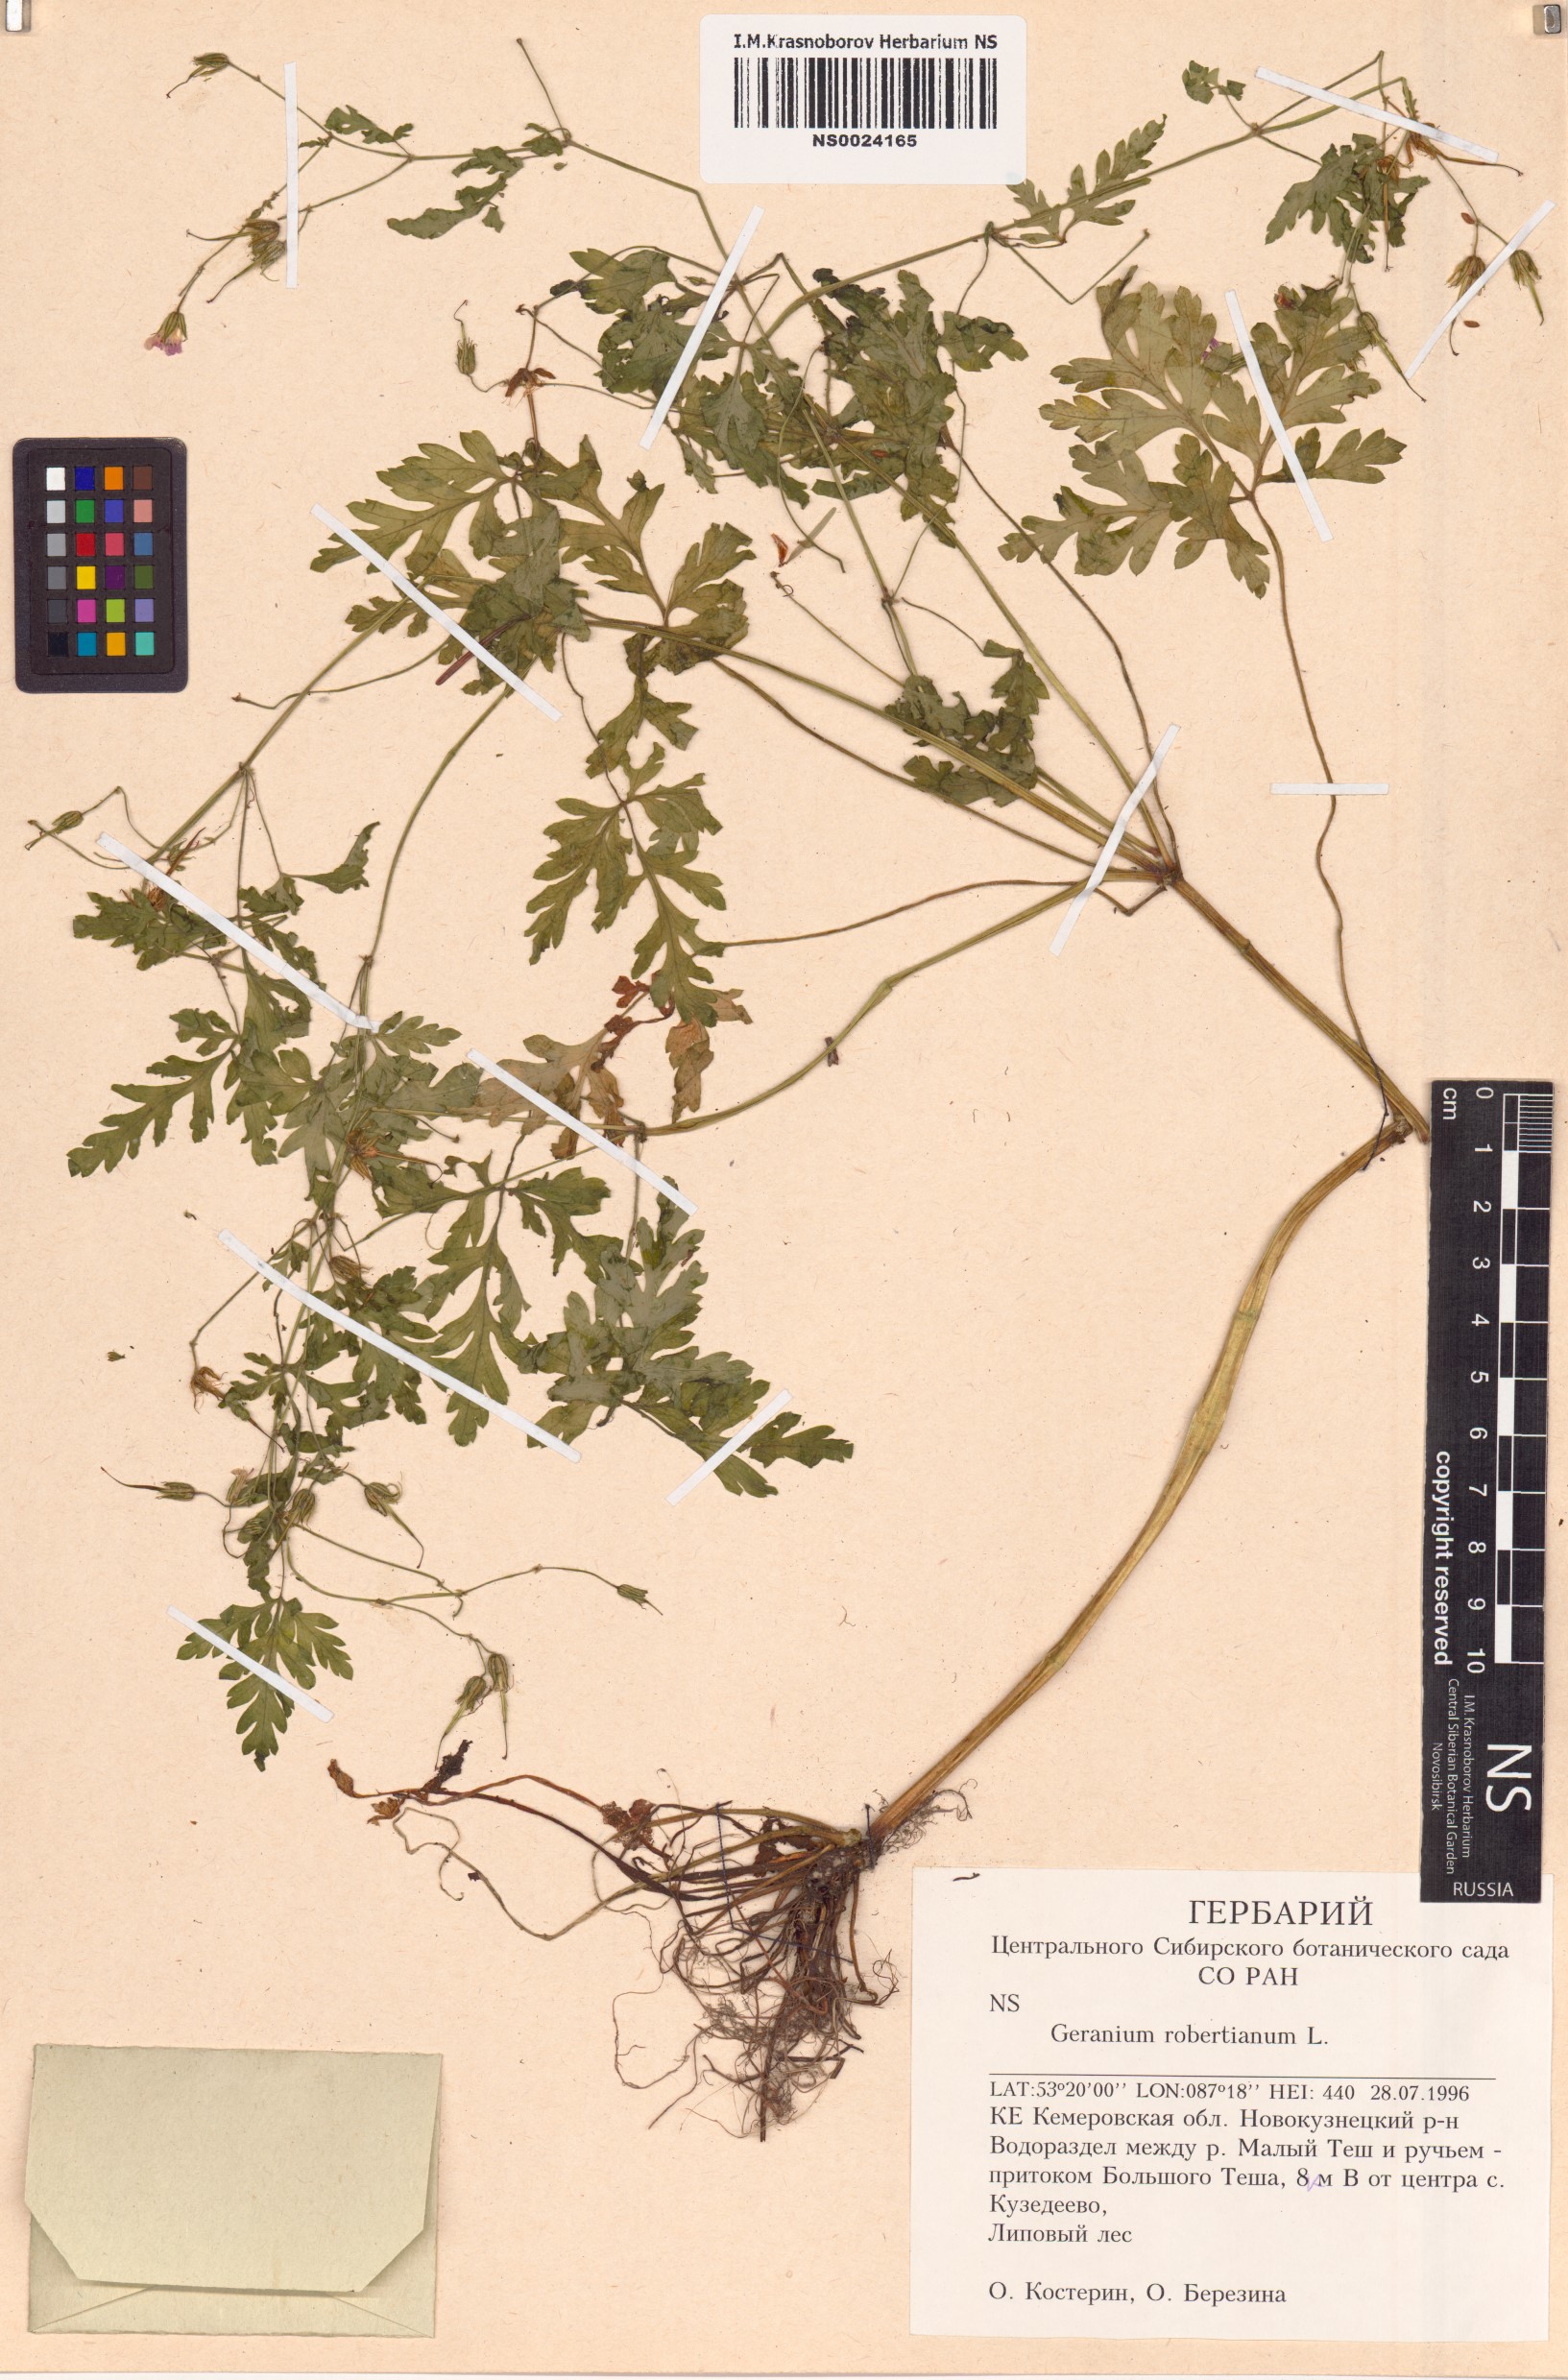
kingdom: Plantae
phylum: Tracheophyta
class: Magnoliopsida
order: Geraniales
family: Geraniaceae
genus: Geranium
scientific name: Geranium robertianum
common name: Herb-robert
